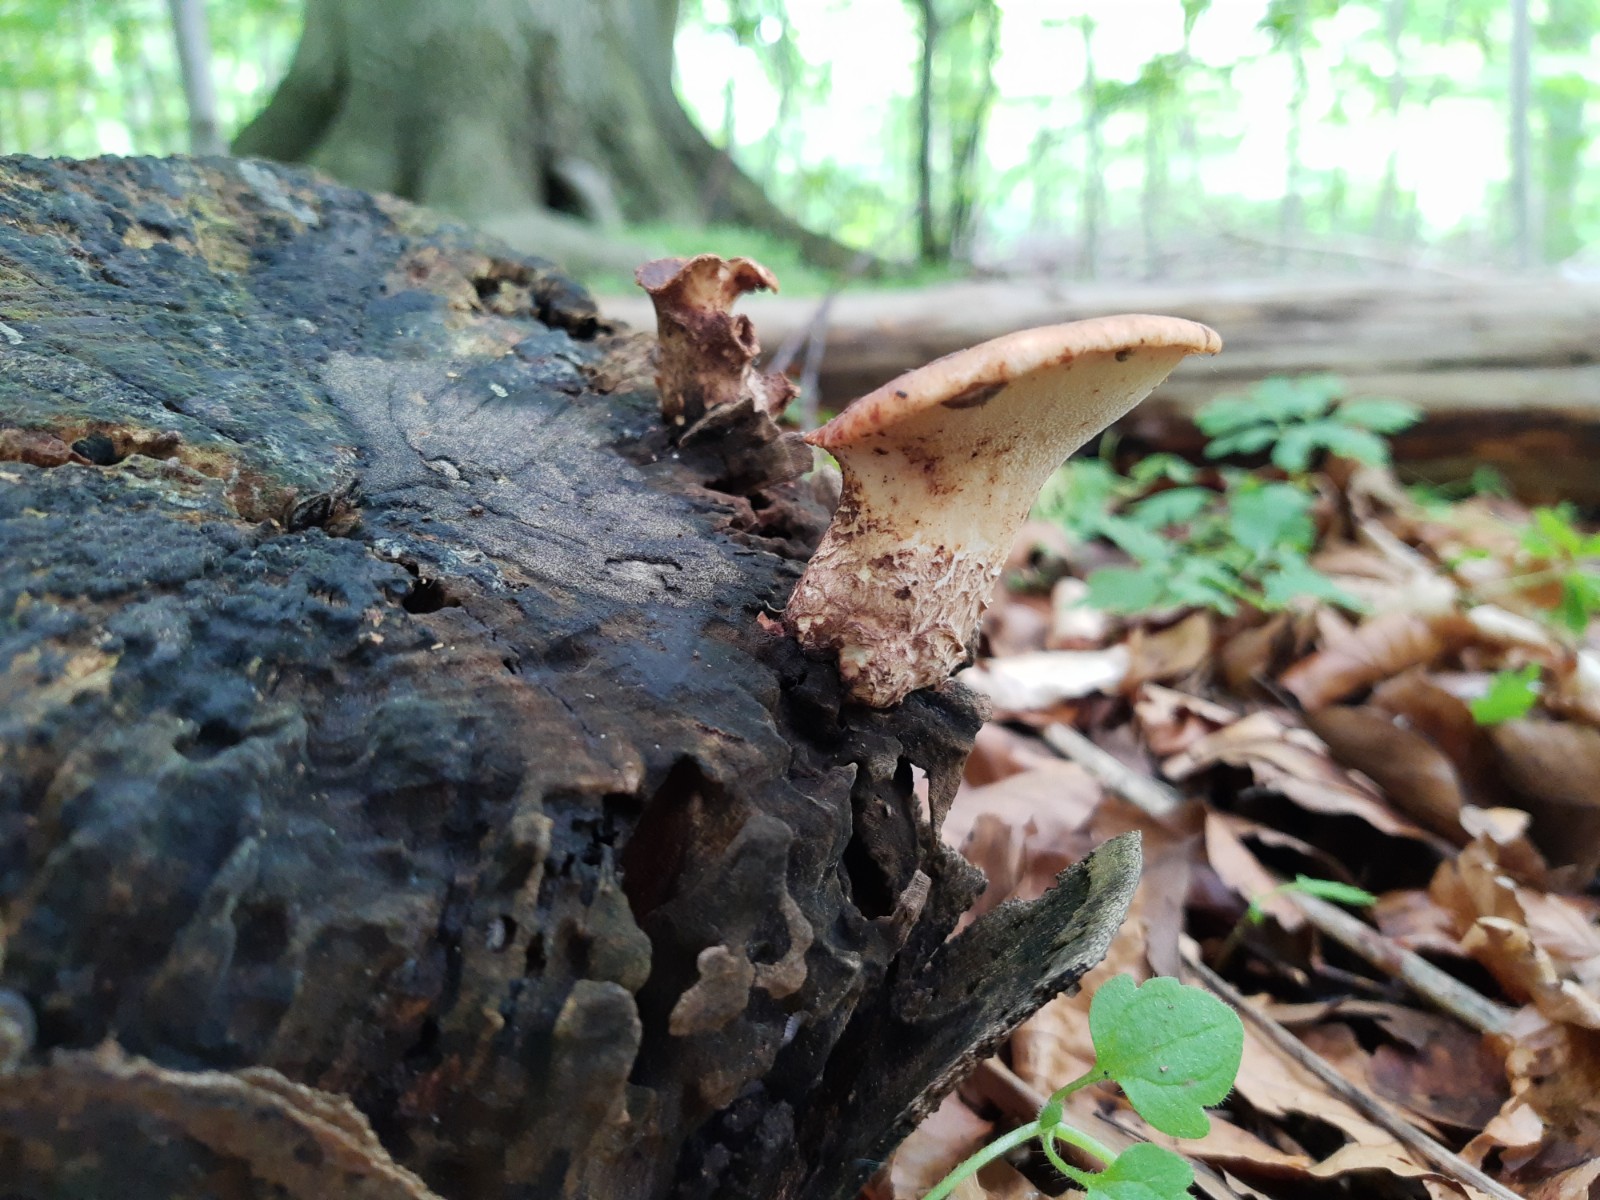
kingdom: Fungi
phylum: Basidiomycota
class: Agaricomycetes
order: Polyporales
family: Polyporaceae
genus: Cerioporus
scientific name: Cerioporus squamosus
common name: skællet stilkporesvamp
